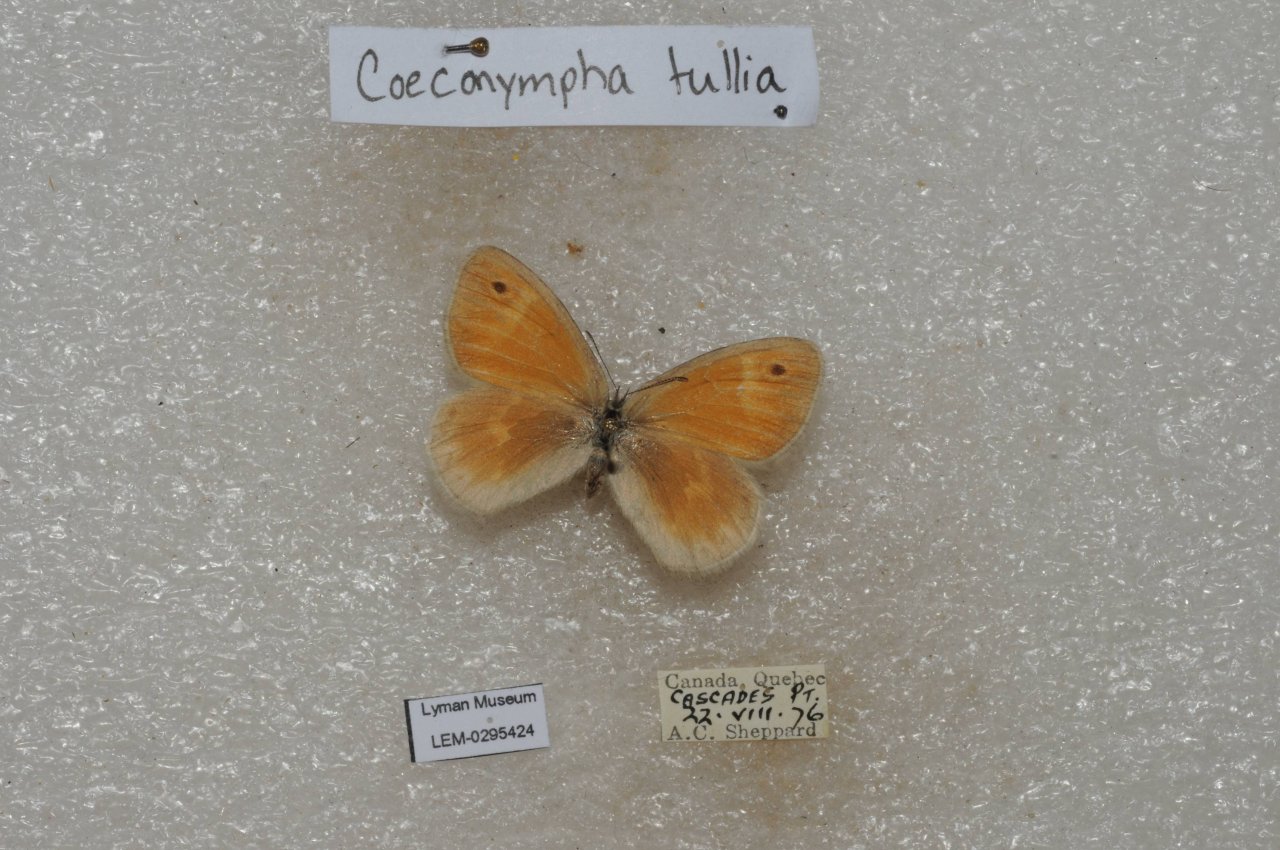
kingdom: Animalia
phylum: Arthropoda
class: Insecta
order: Lepidoptera
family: Nymphalidae
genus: Coenonympha
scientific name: Coenonympha tullia
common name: Large Heath
